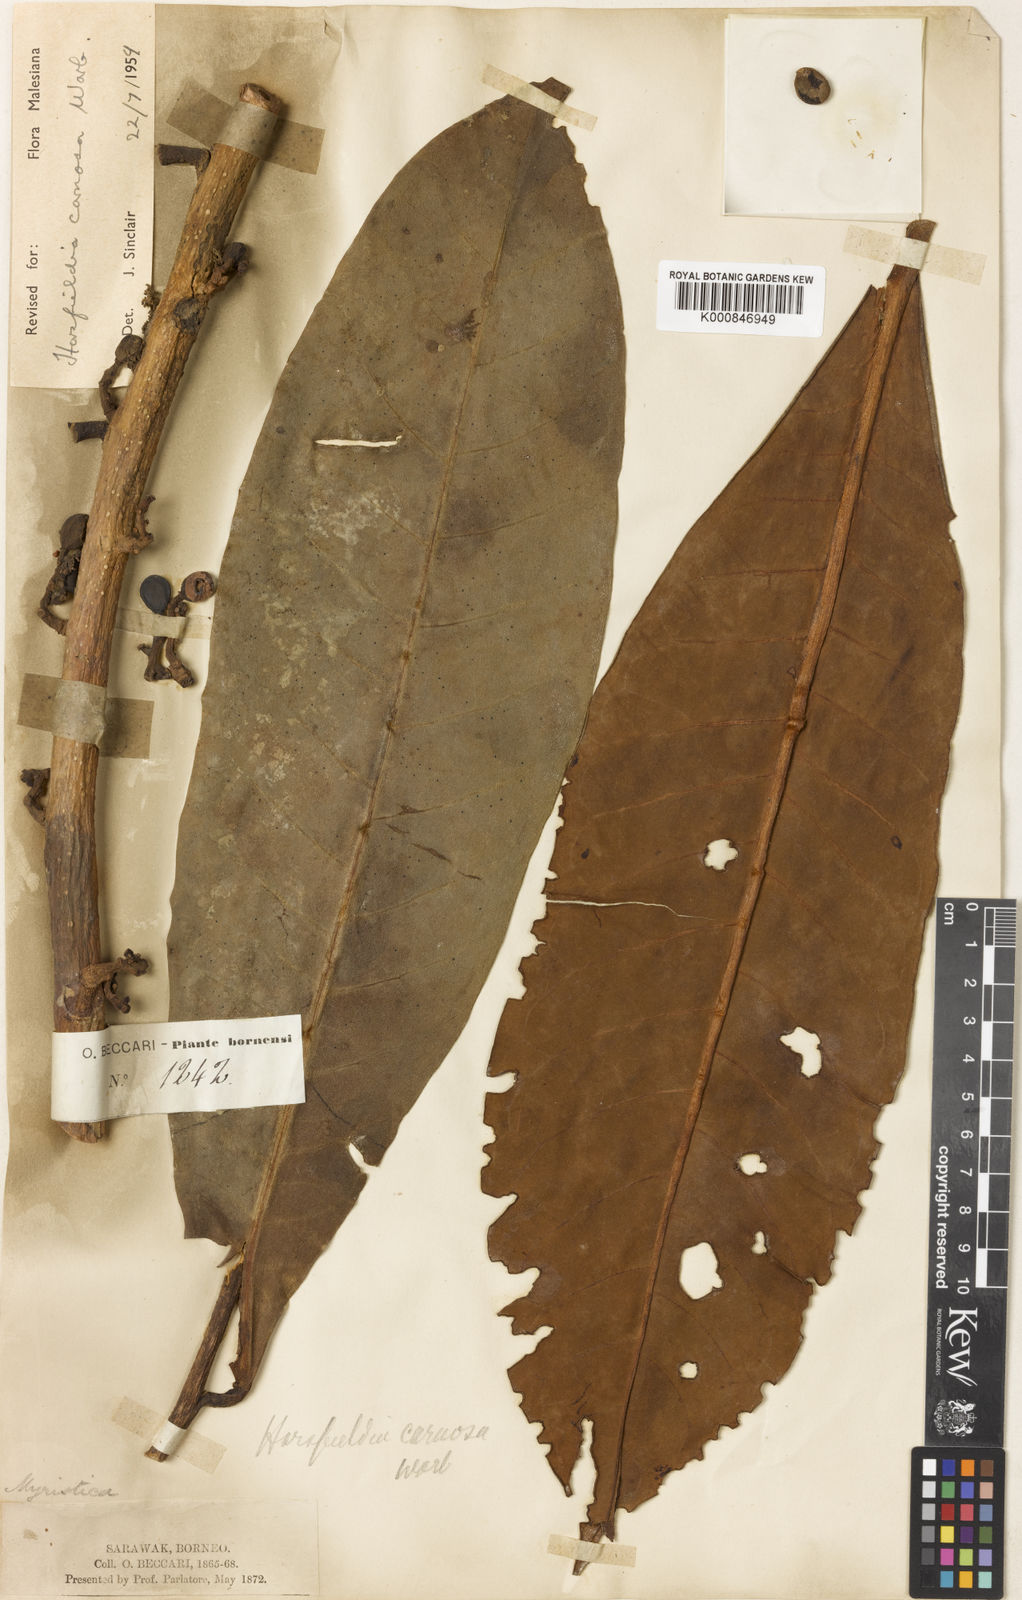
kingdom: Plantae
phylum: Tracheophyta
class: Magnoliopsida
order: Magnoliales
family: Myristicaceae
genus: Horsfieldia
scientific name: Horsfieldia carnosa
